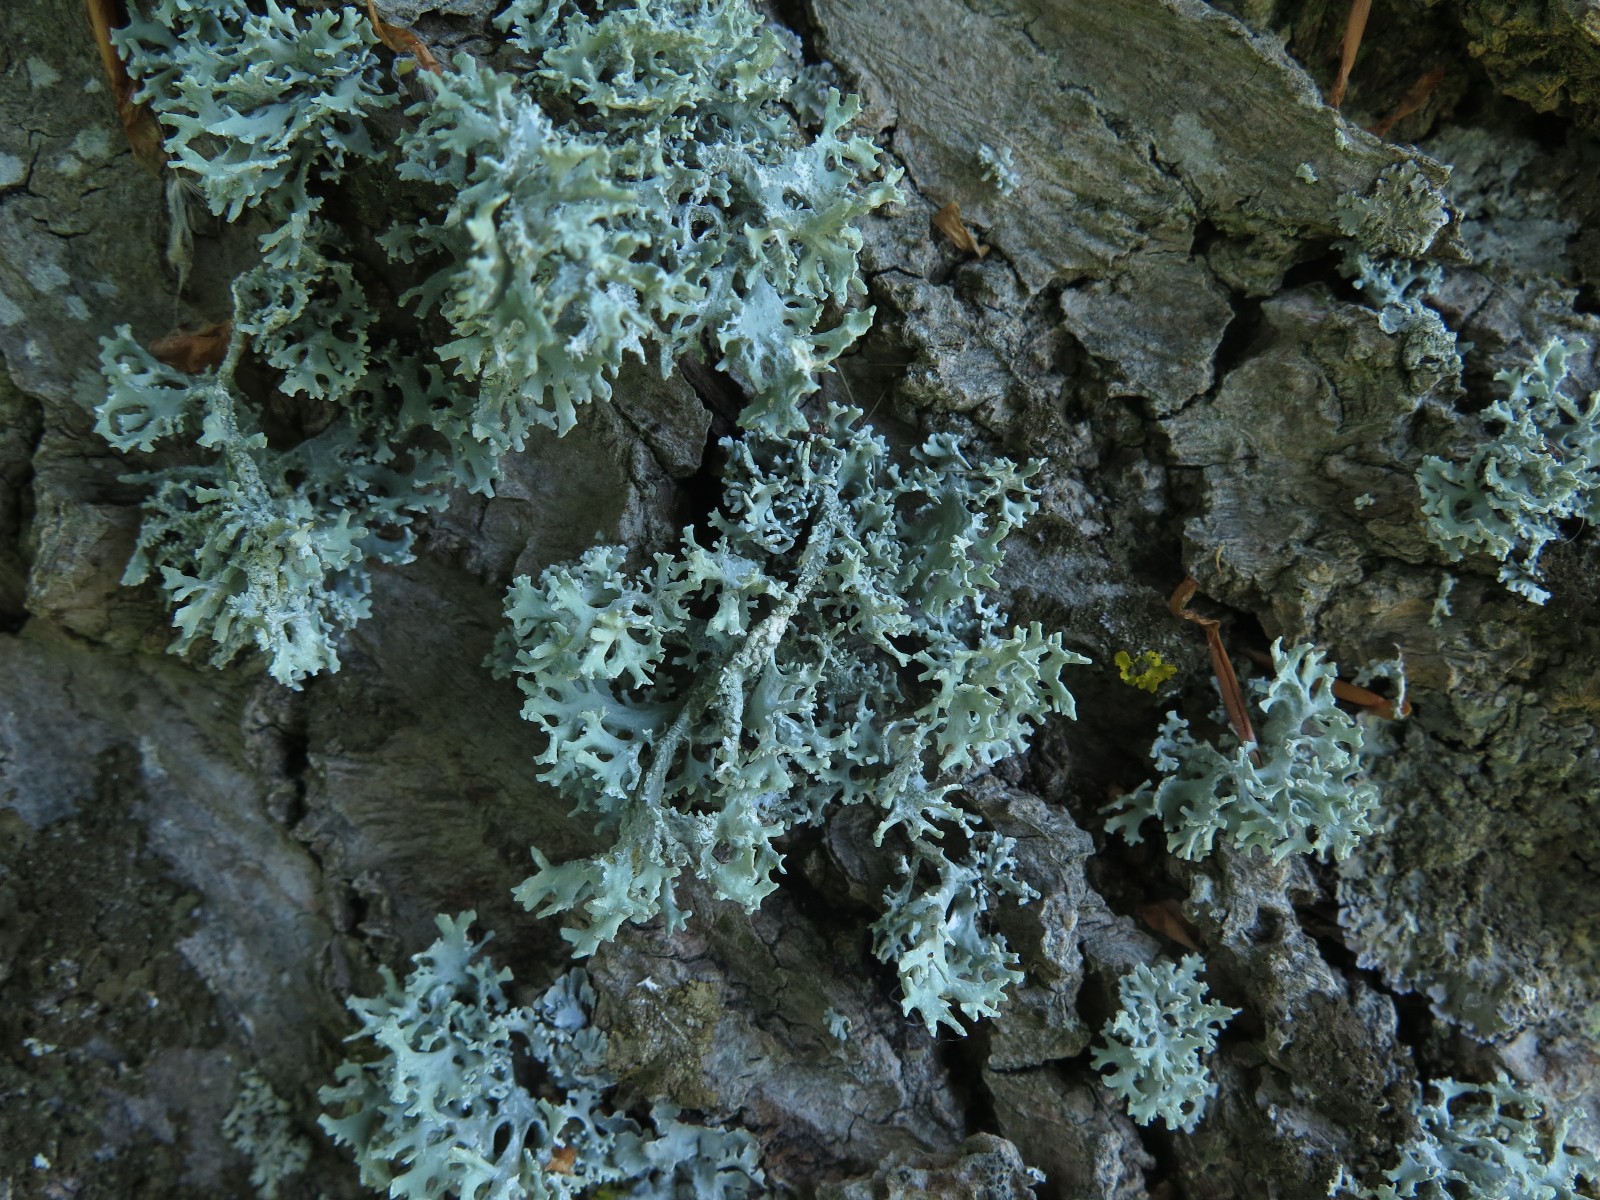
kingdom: Fungi
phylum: Ascomycota
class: Lecanoromycetes
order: Lecanorales
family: Parmeliaceae
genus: Evernia
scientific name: Evernia prunastri
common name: almindelig slåenlav
